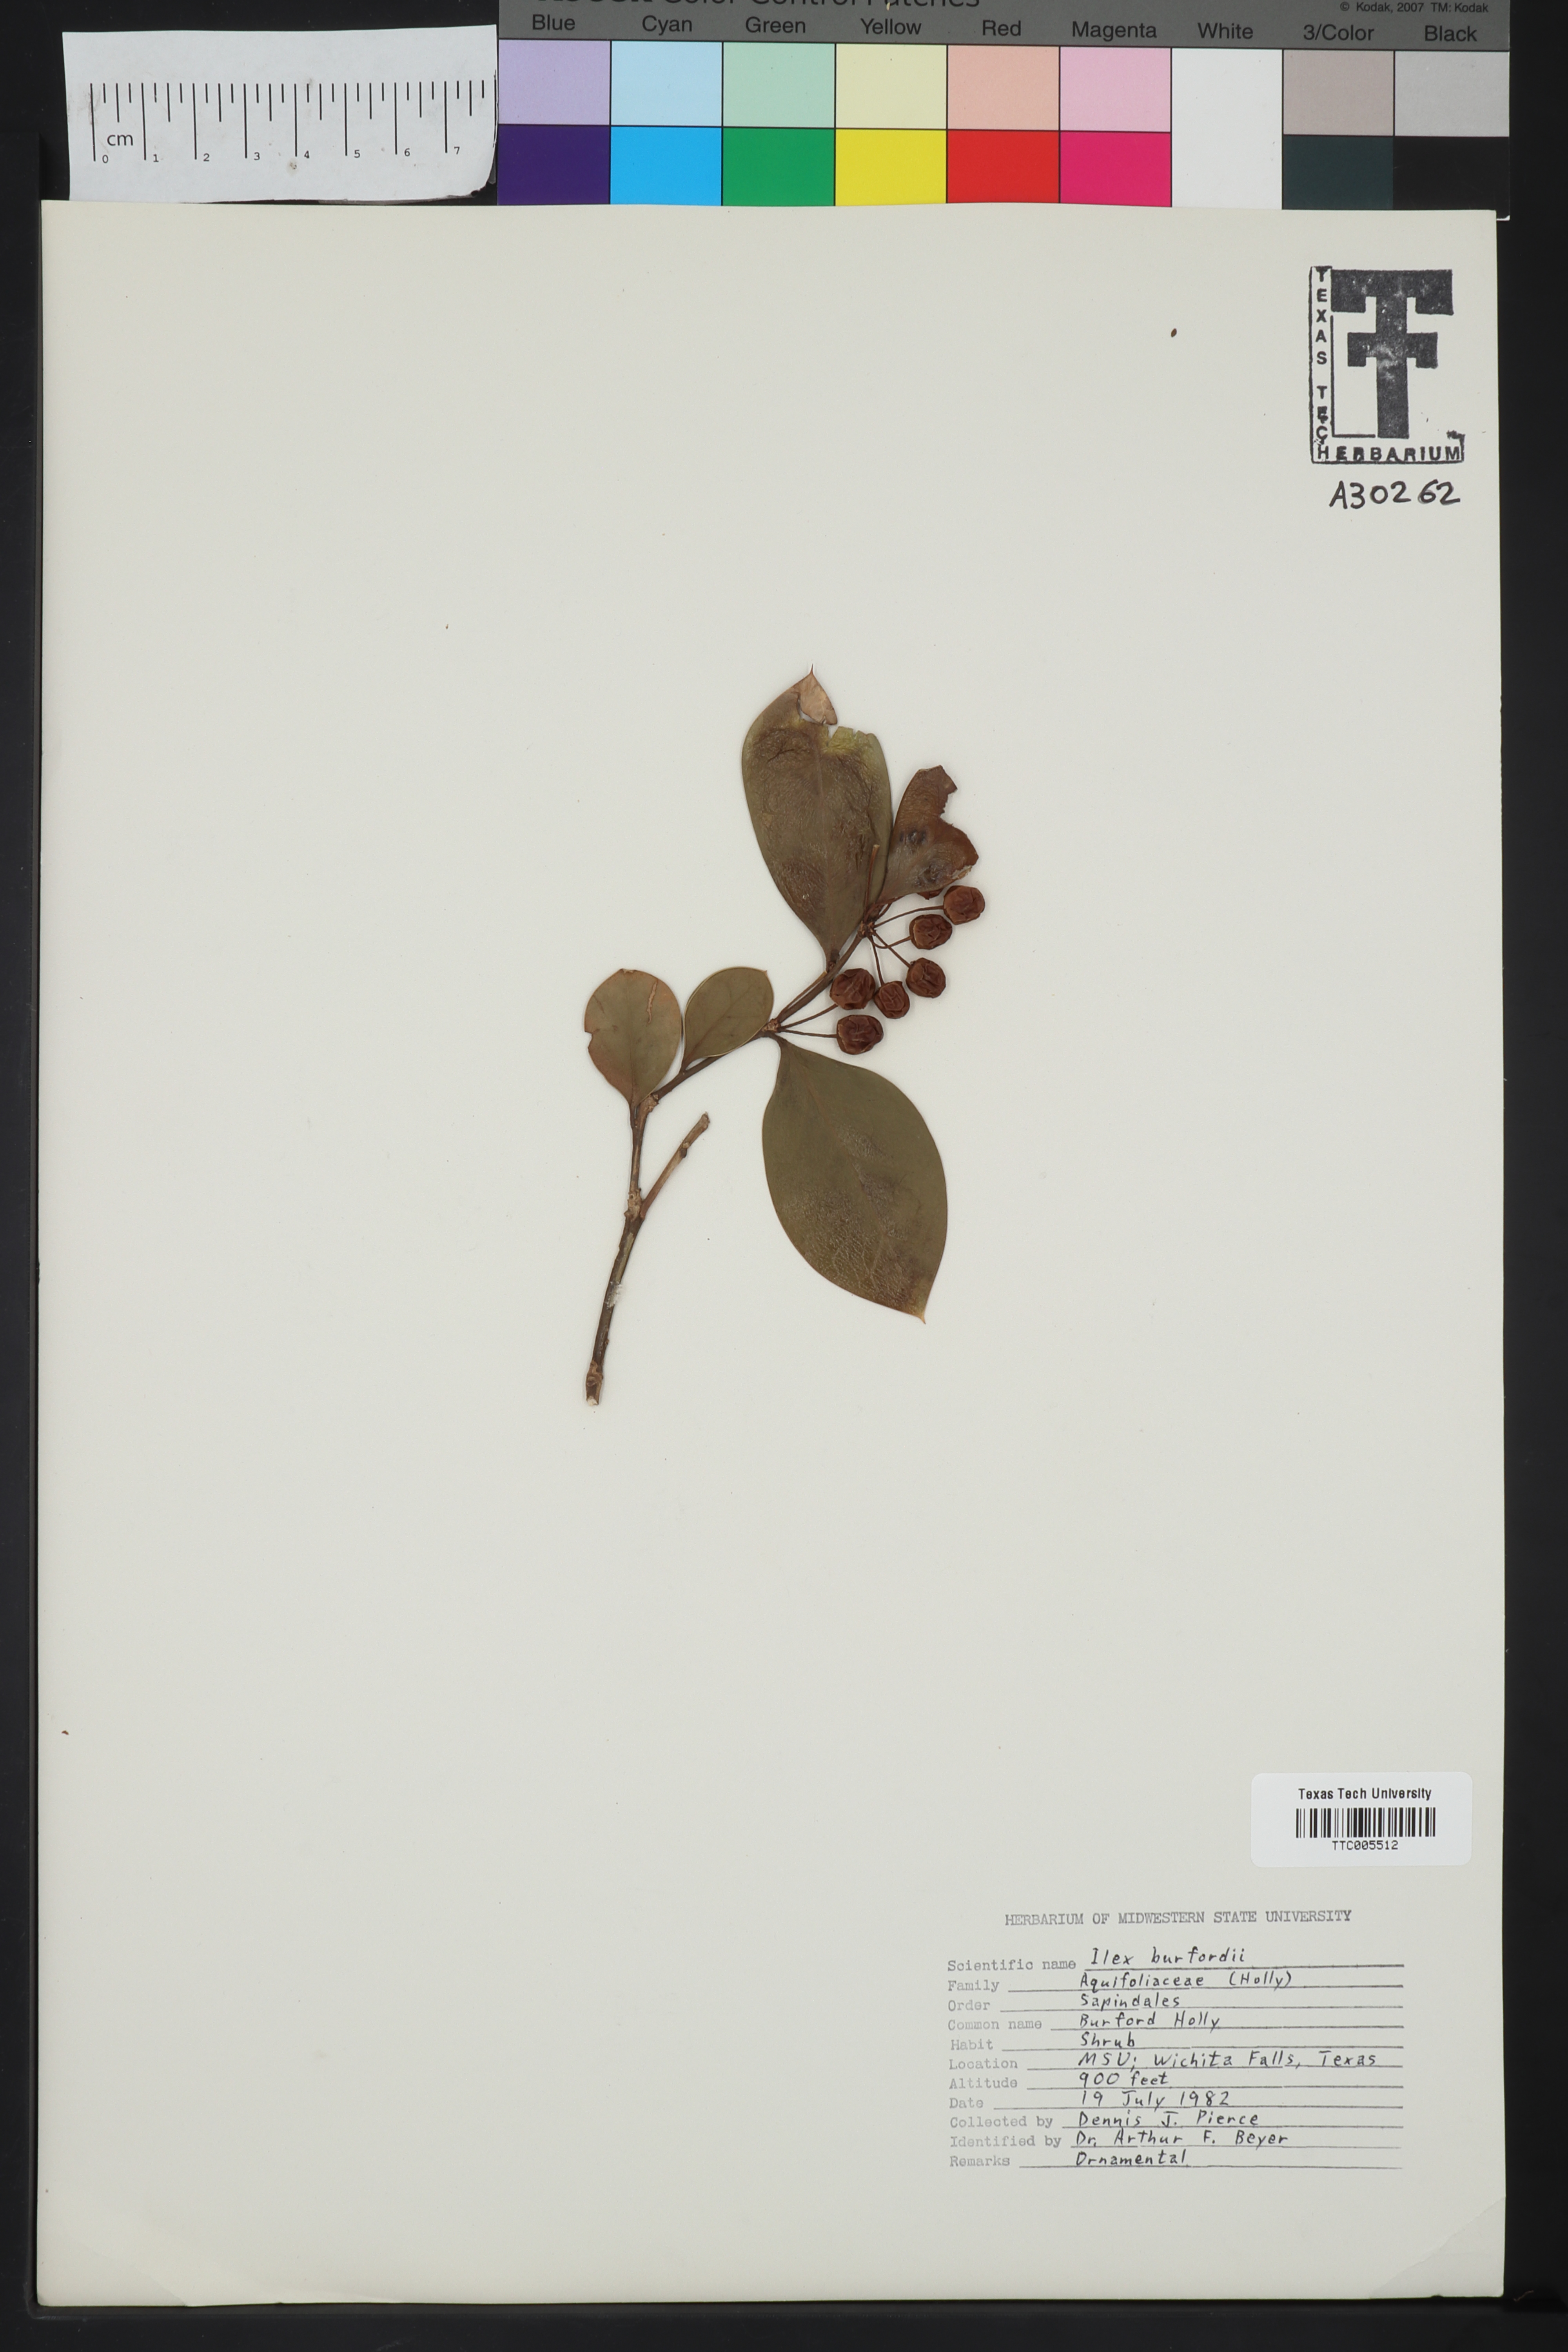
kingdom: Plantae
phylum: Tracheophyta
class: Magnoliopsida
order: Aquifoliales
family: Aquifoliaceae
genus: Ilex
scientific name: Ilex crenata
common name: Japanese holly
